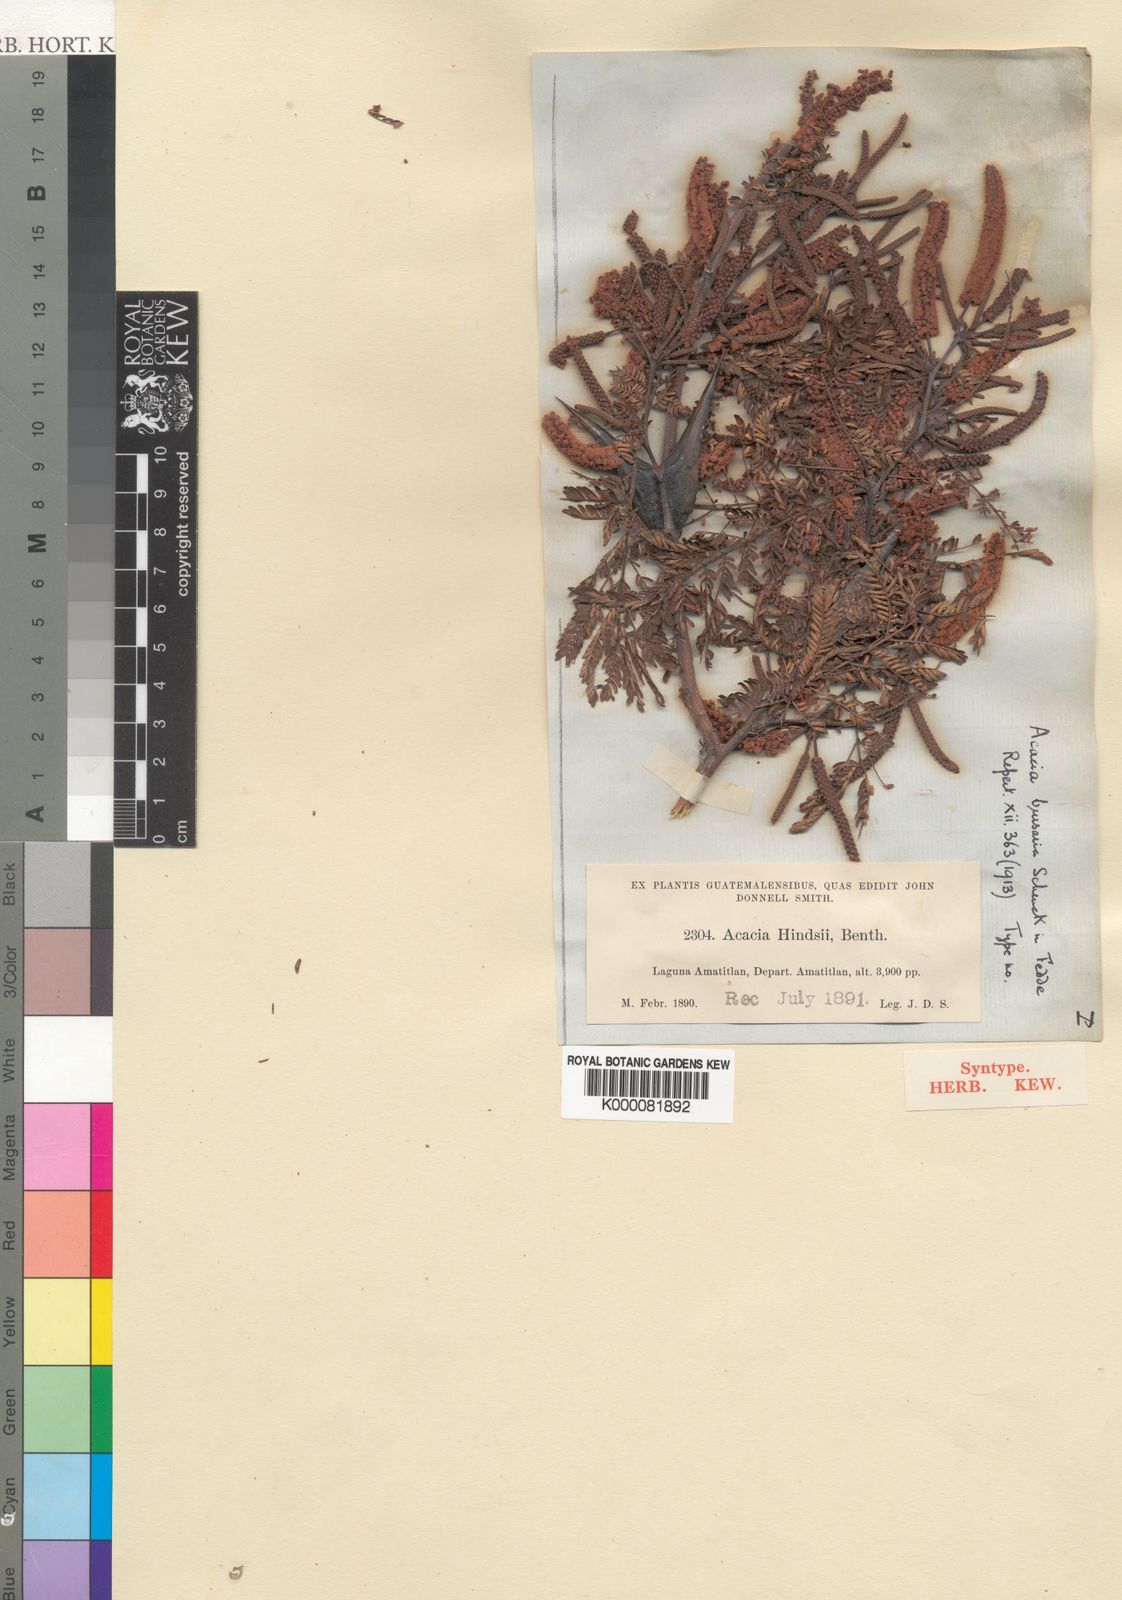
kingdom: Plantae
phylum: Tracheophyta
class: Magnoliopsida
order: Fabales
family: Fabaceae
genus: Vachellia
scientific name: Vachellia hindsii
